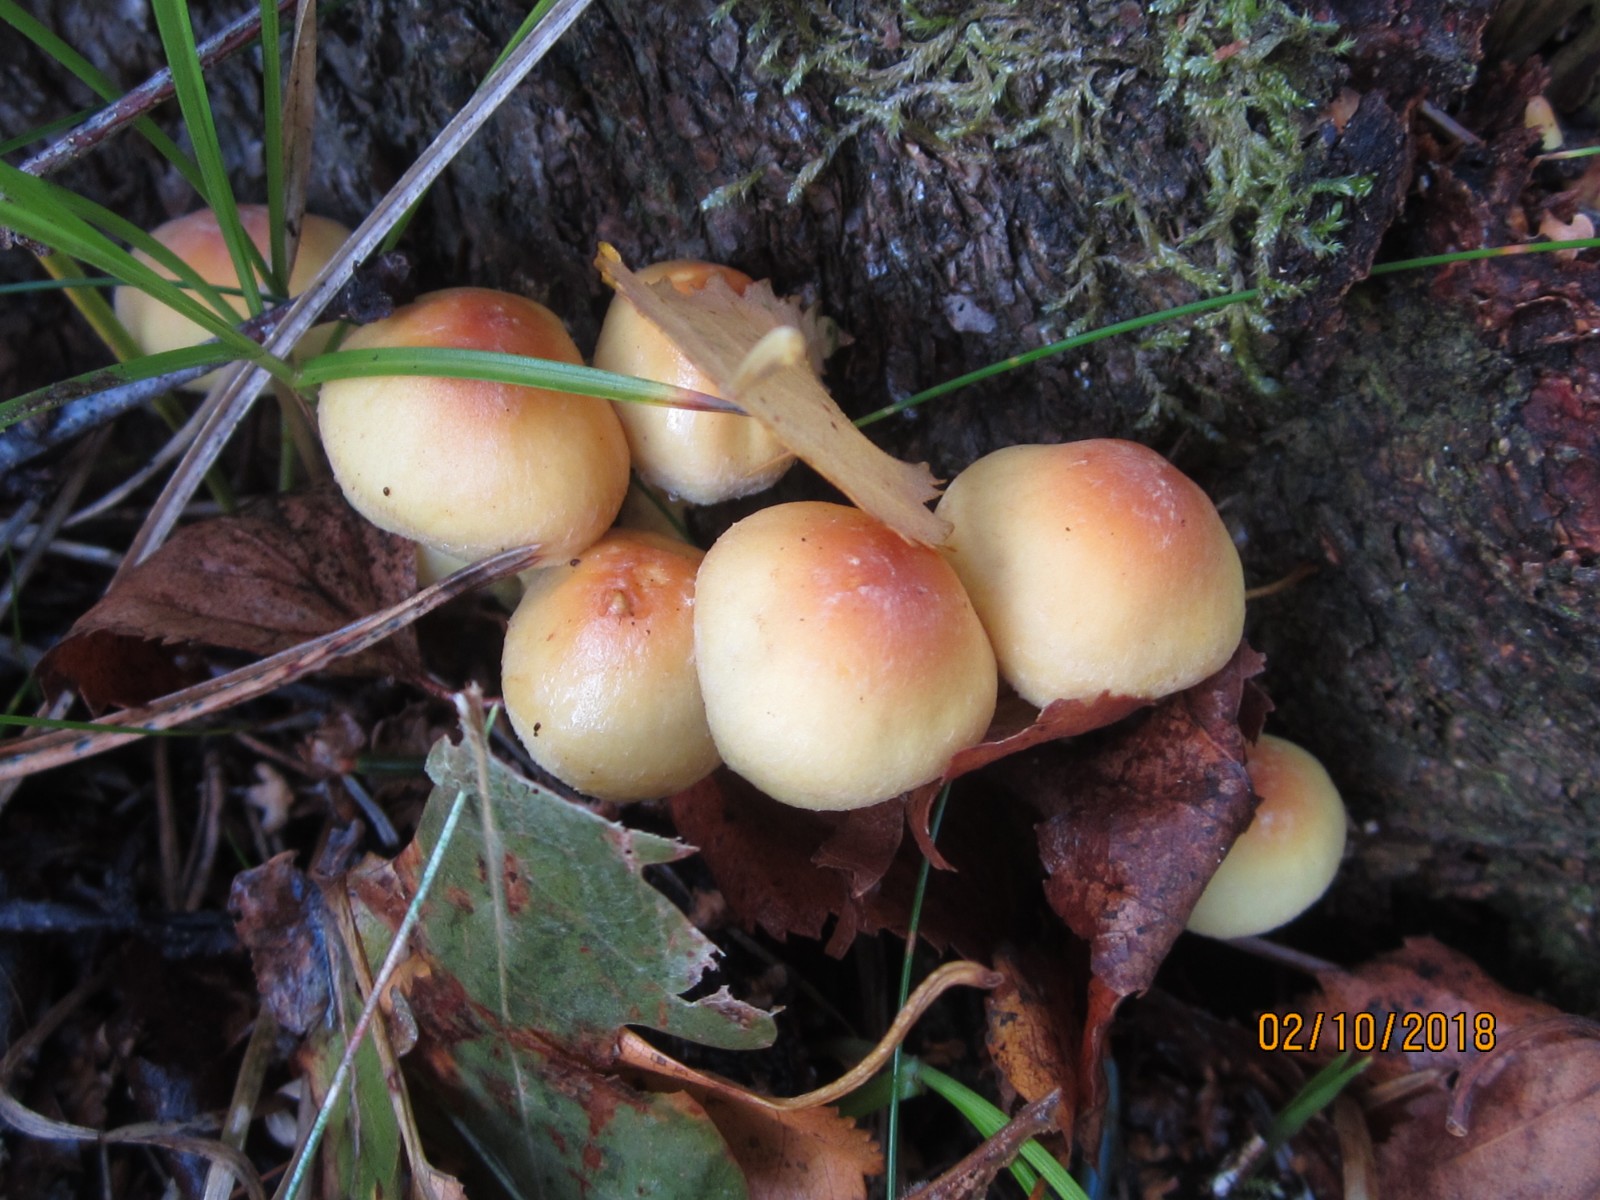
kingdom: Fungi
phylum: Basidiomycota
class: Agaricomycetes
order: Agaricales
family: Strophariaceae
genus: Hypholoma
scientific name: Hypholoma fasciculare
